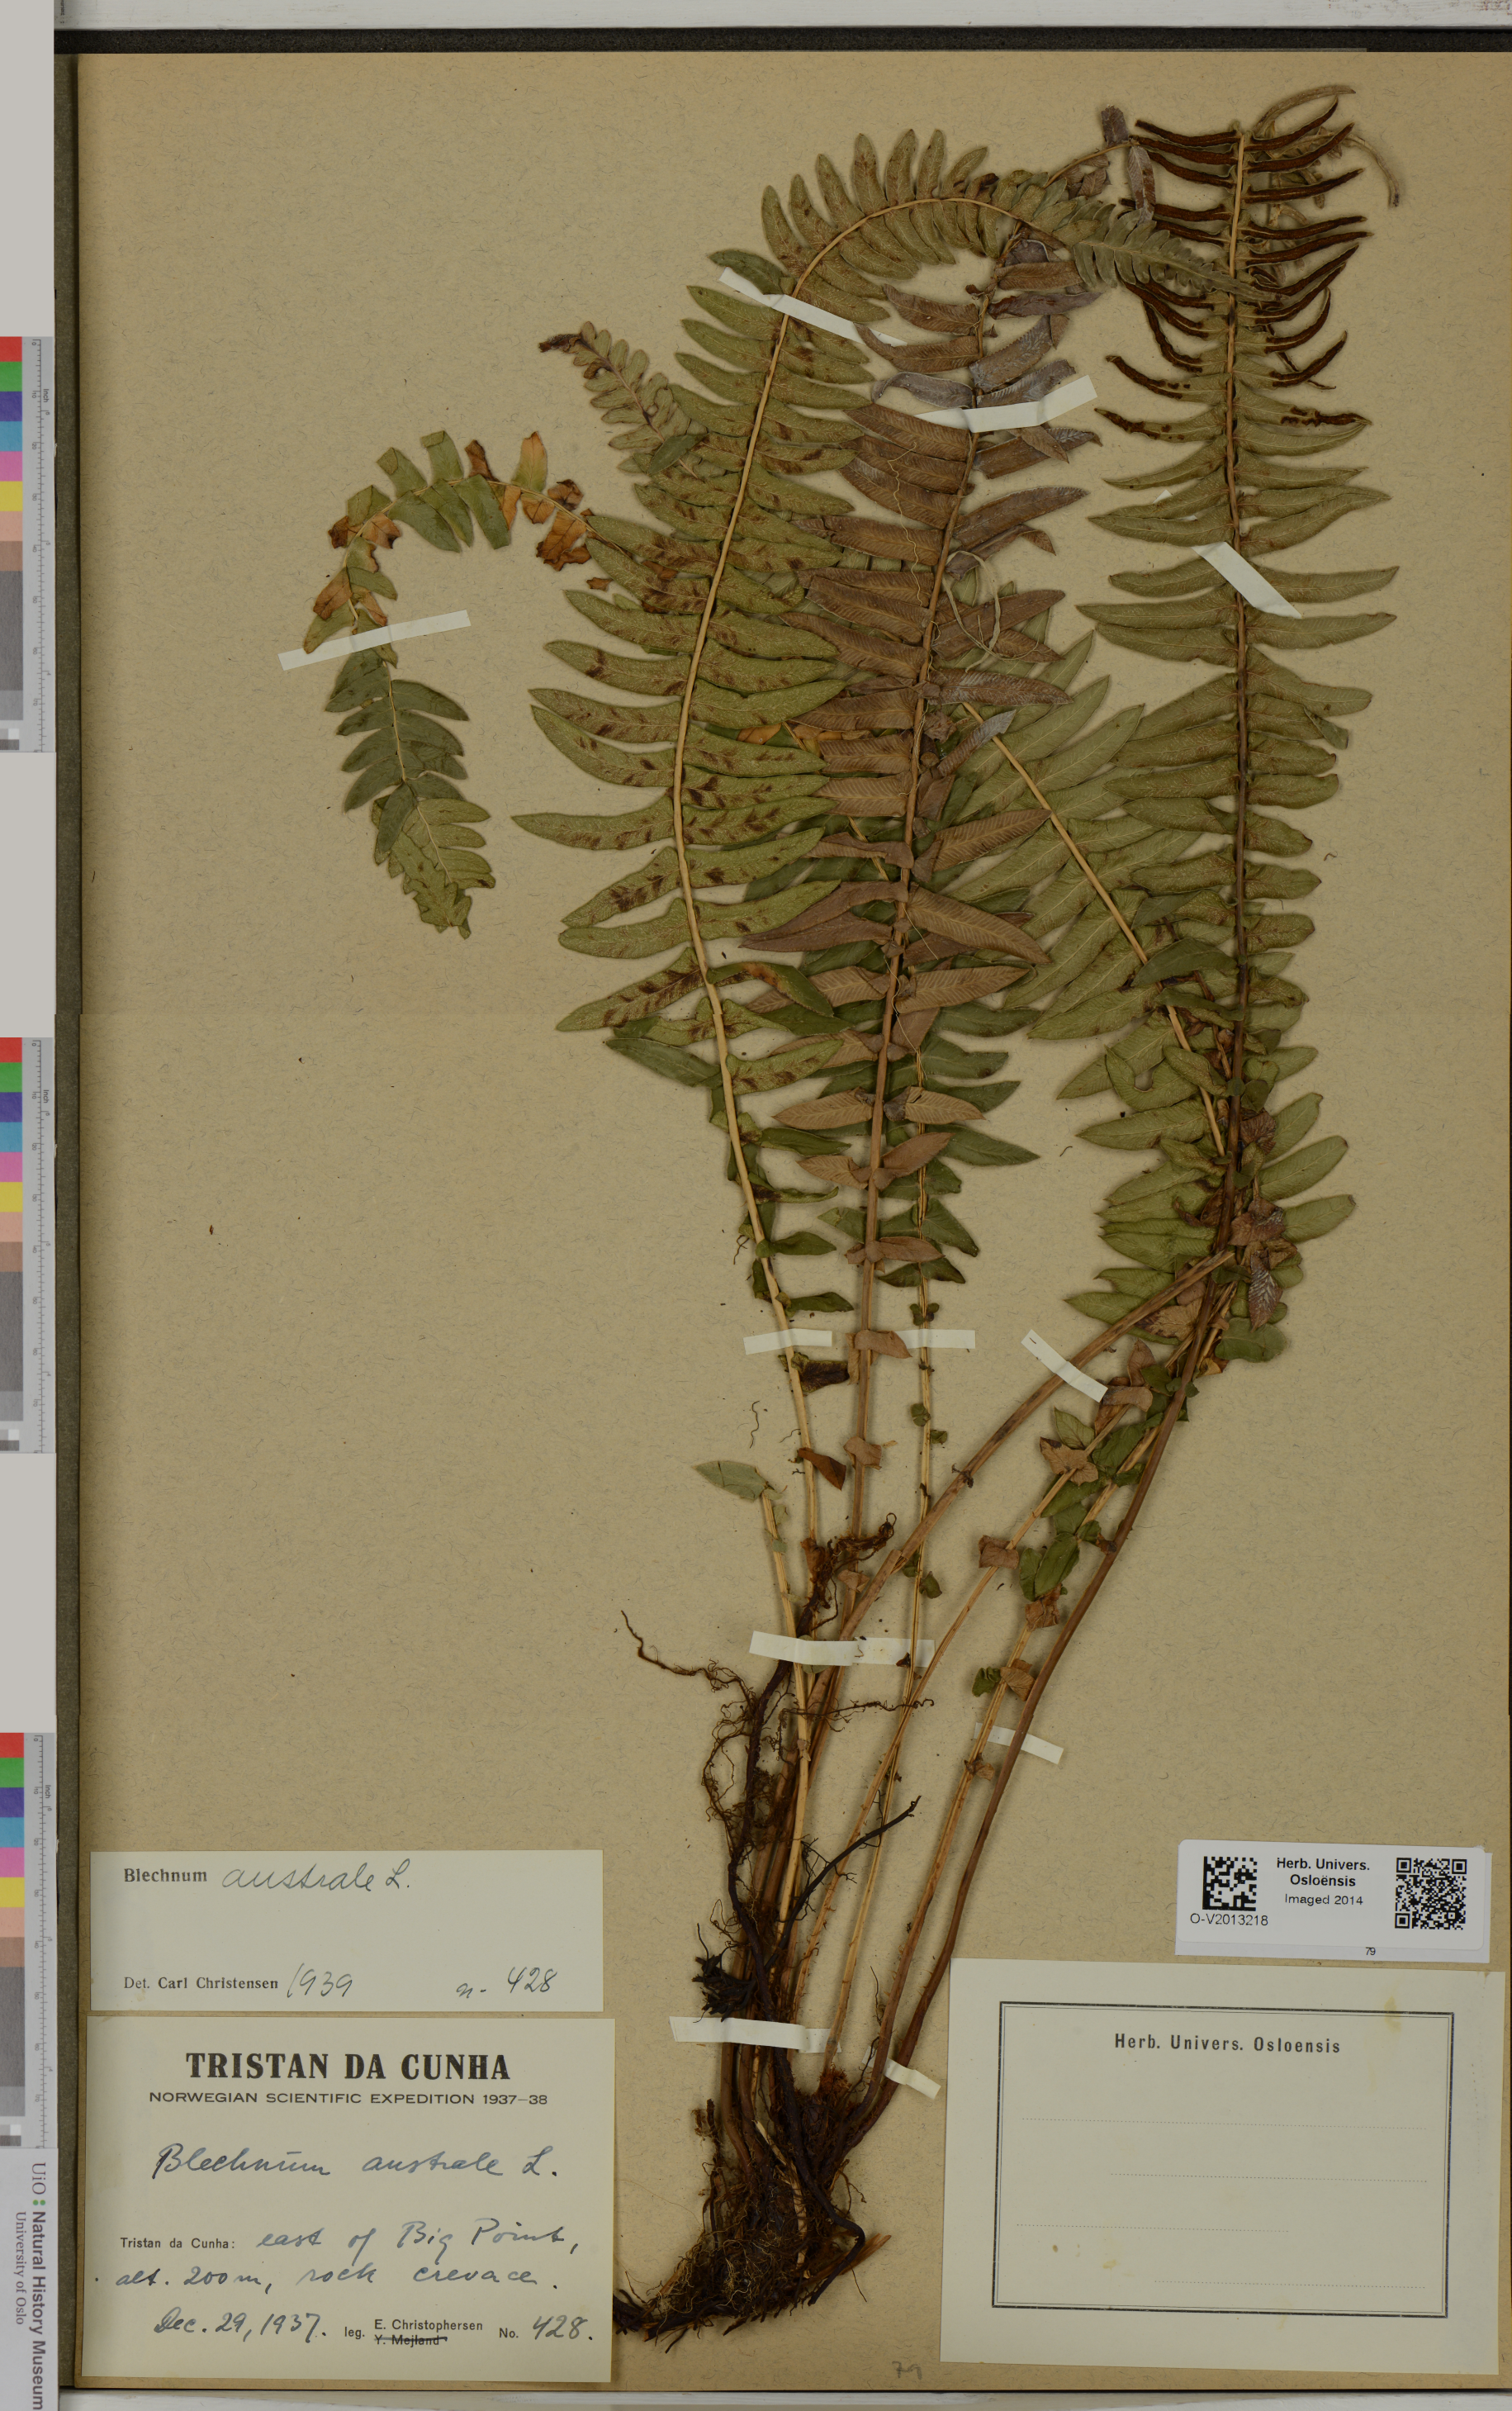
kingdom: Plantae
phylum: Tracheophyta
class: Polypodiopsida
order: Polypodiales
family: Blechnaceae
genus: Blechnum
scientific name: Blechnum australe
